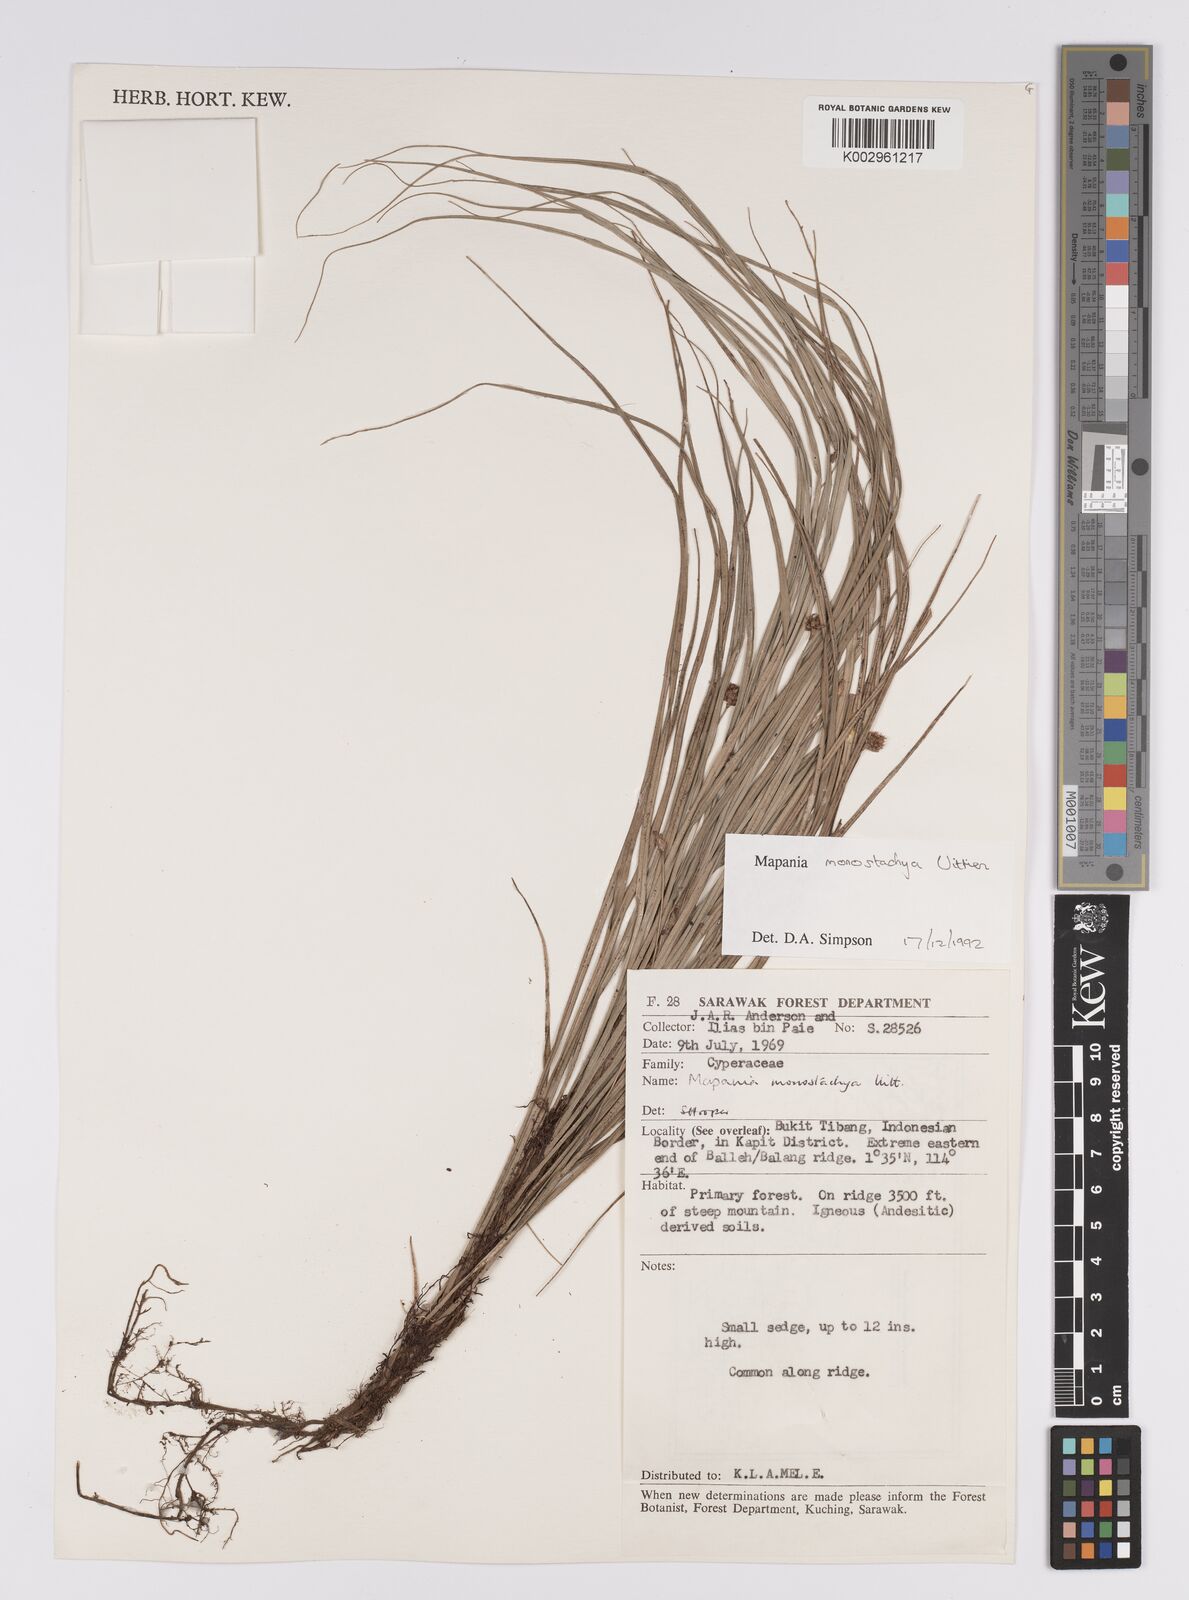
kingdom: Plantae
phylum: Tracheophyta
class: Liliopsida
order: Poales
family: Cyperaceae
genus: Mapania
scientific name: Mapania monostachya
